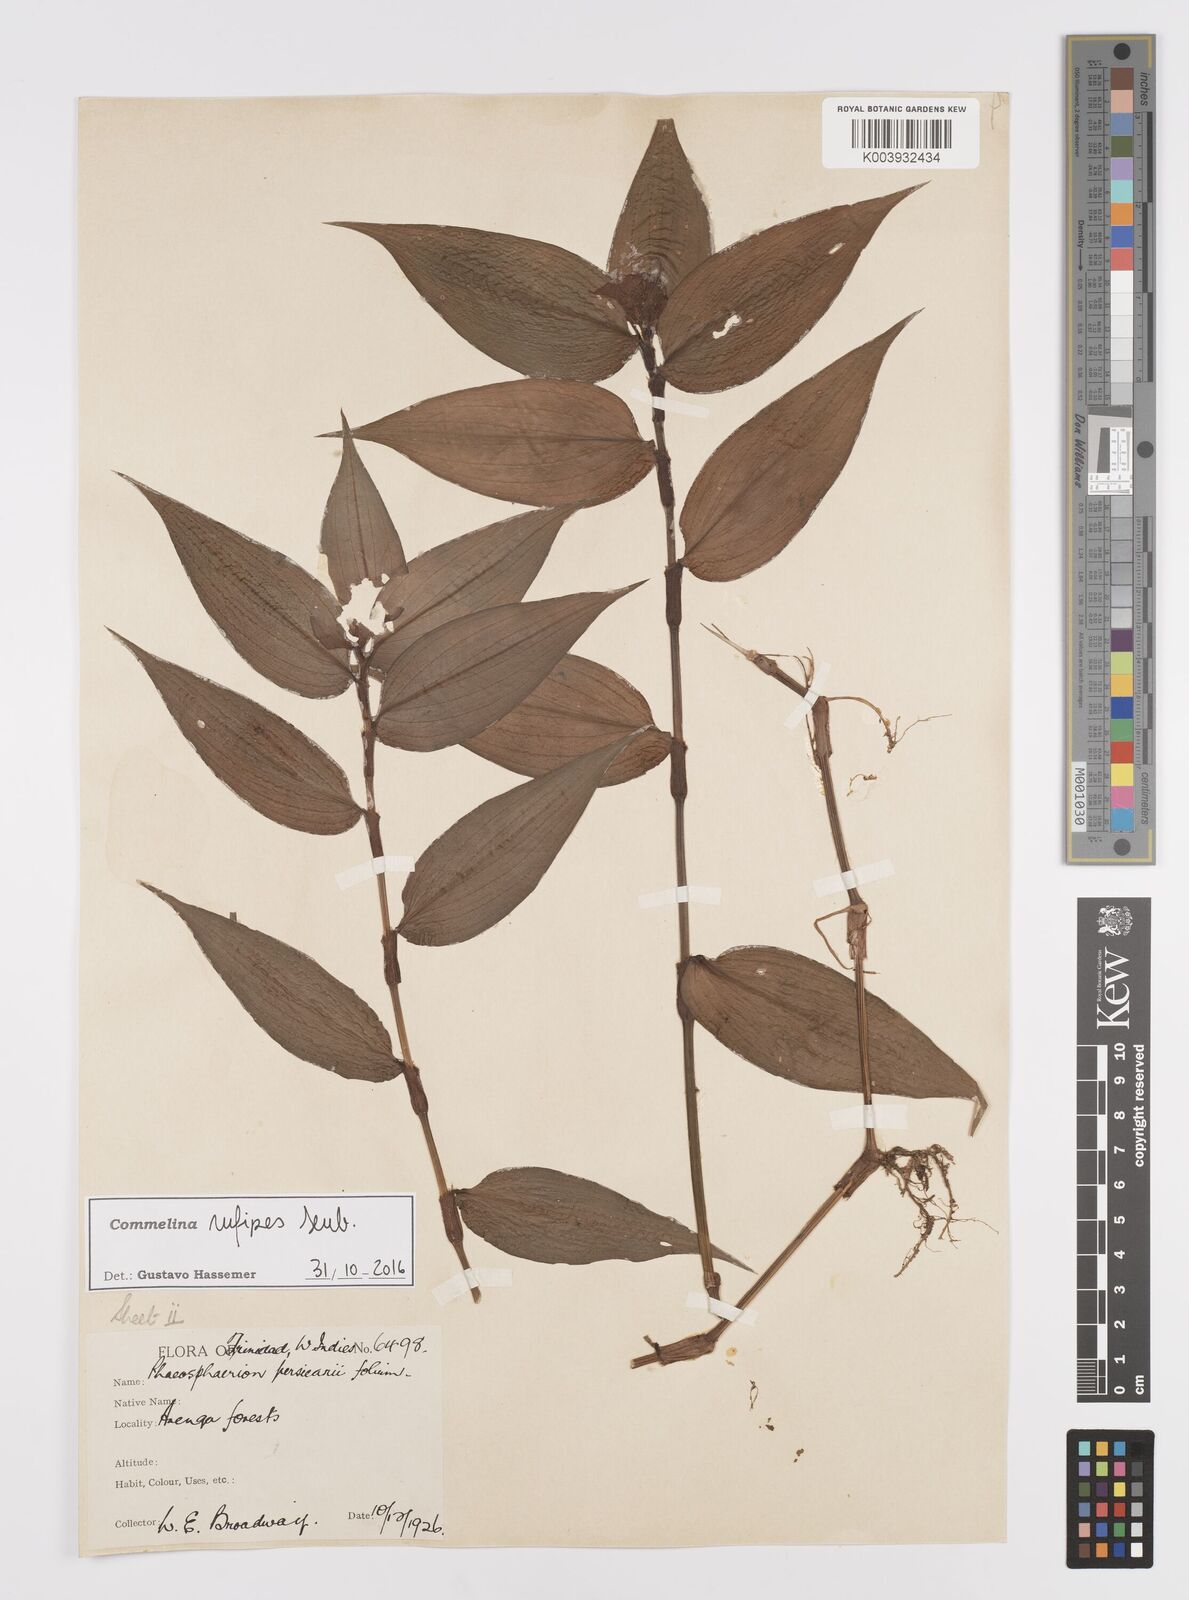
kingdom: Plantae
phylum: Tracheophyta
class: Liliopsida
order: Commelinales
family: Commelinaceae
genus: Commelina
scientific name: Commelina rufipes
